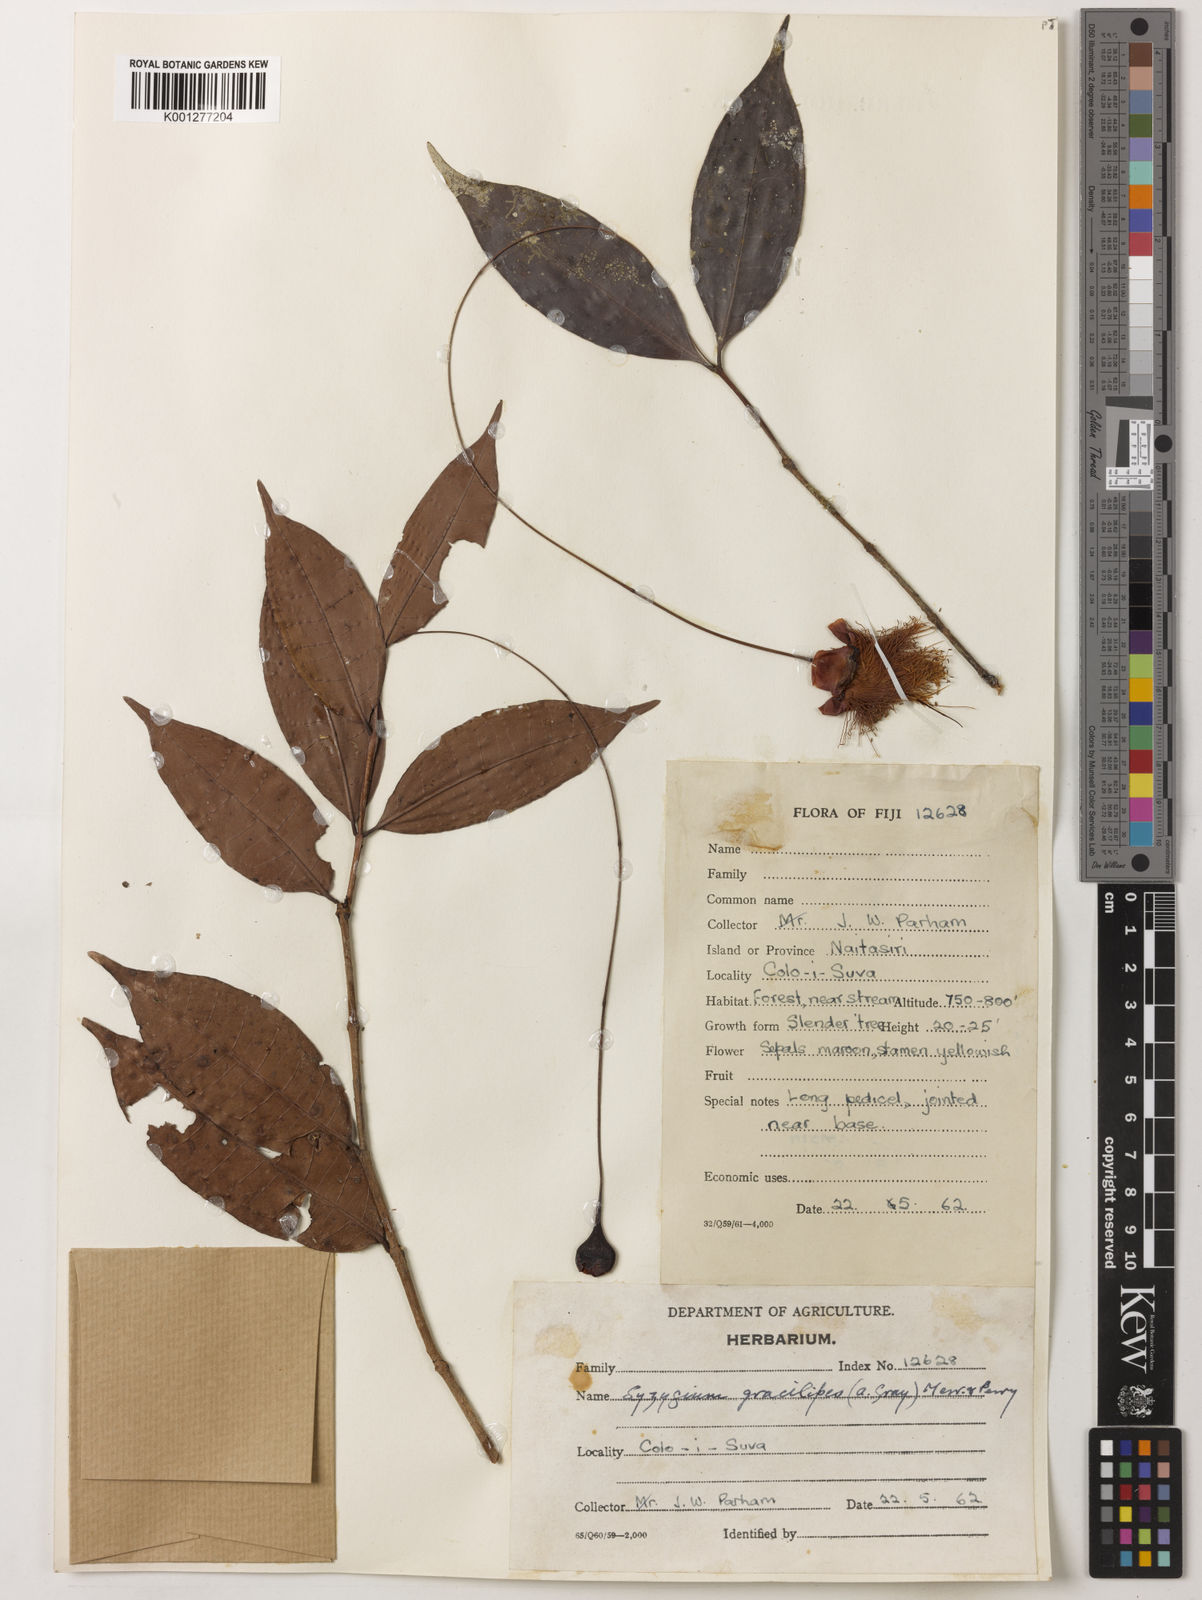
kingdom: Plantae
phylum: Tracheophyta
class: Magnoliopsida
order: Myrtales
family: Myrtaceae
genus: Syzygium
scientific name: Syzygium gracilipes
